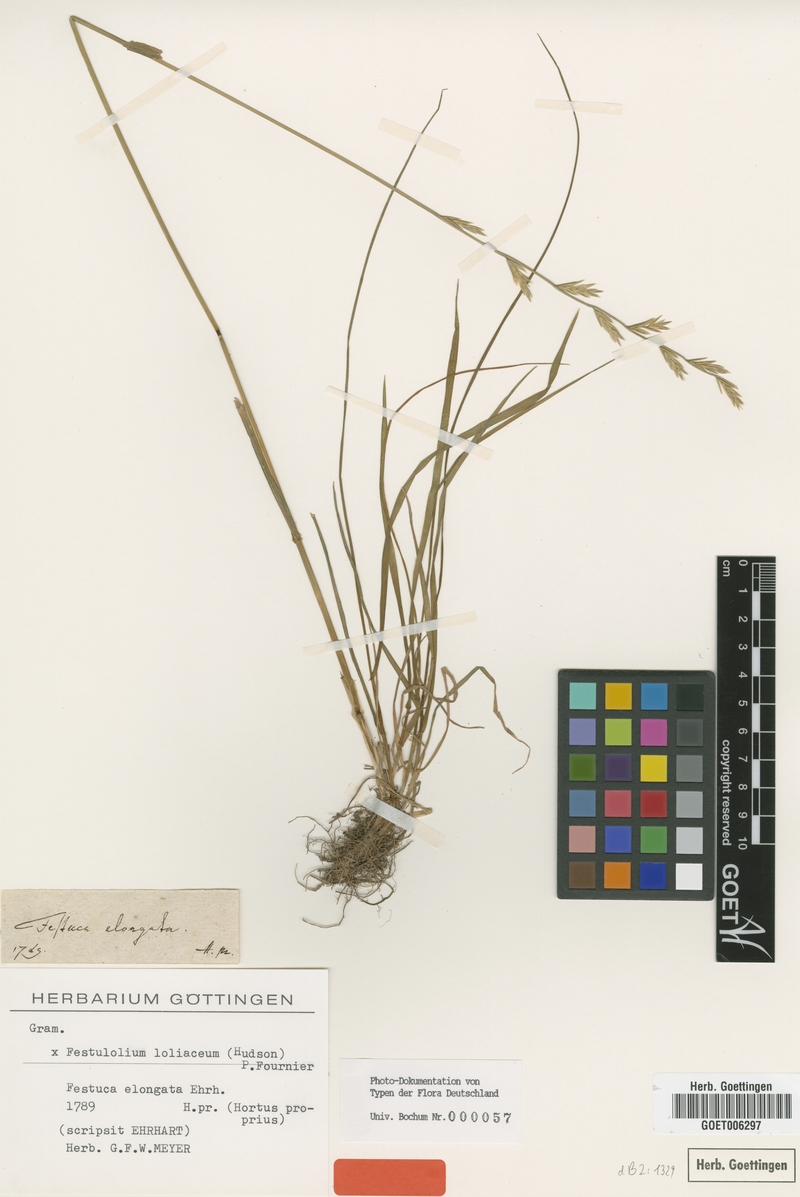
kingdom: Plantae
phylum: Tracheophyta
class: Liliopsida
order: Poales
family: Poaceae
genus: Lolium
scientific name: Lolium elongatum
